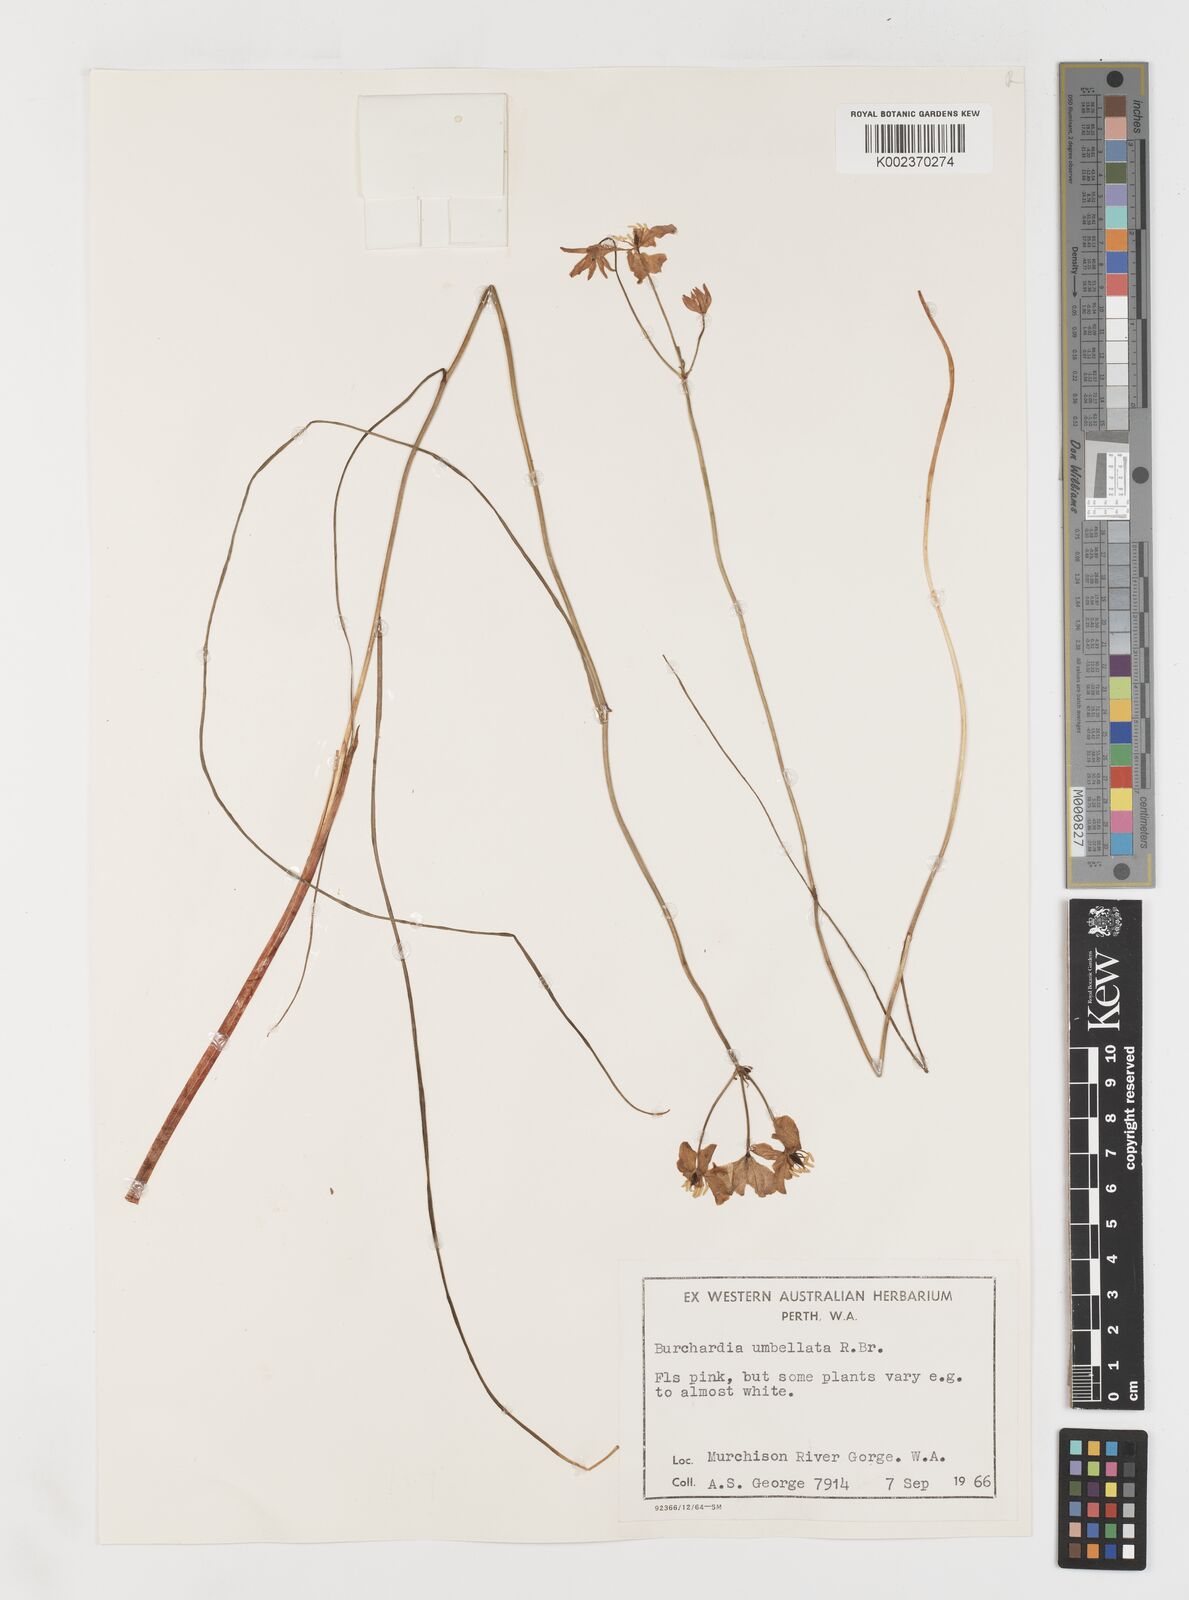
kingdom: Plantae
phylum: Tracheophyta
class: Liliopsida
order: Liliales
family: Colchicaceae
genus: Burchardia
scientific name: Burchardia umbellata
